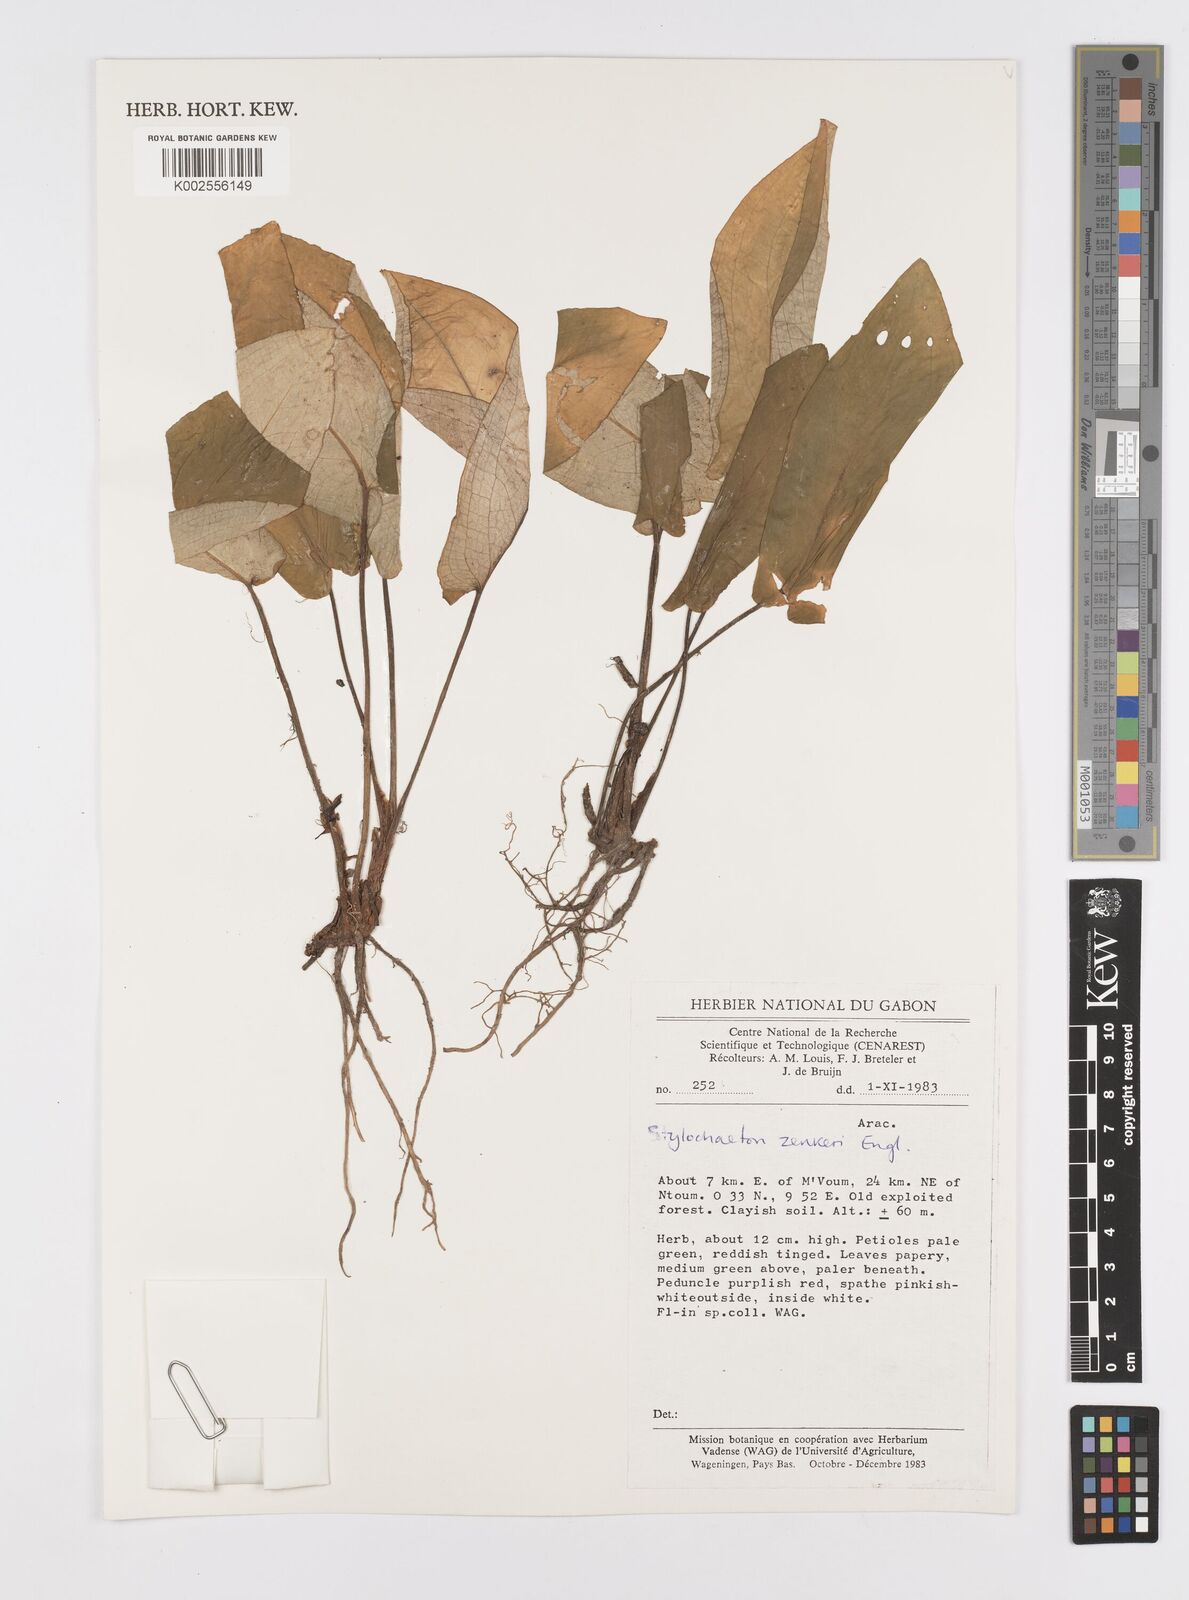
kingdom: Plantae
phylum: Tracheophyta
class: Liliopsida
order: Alismatales
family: Araceae
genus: Stylochaeton
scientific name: Stylochaeton zenkeri
